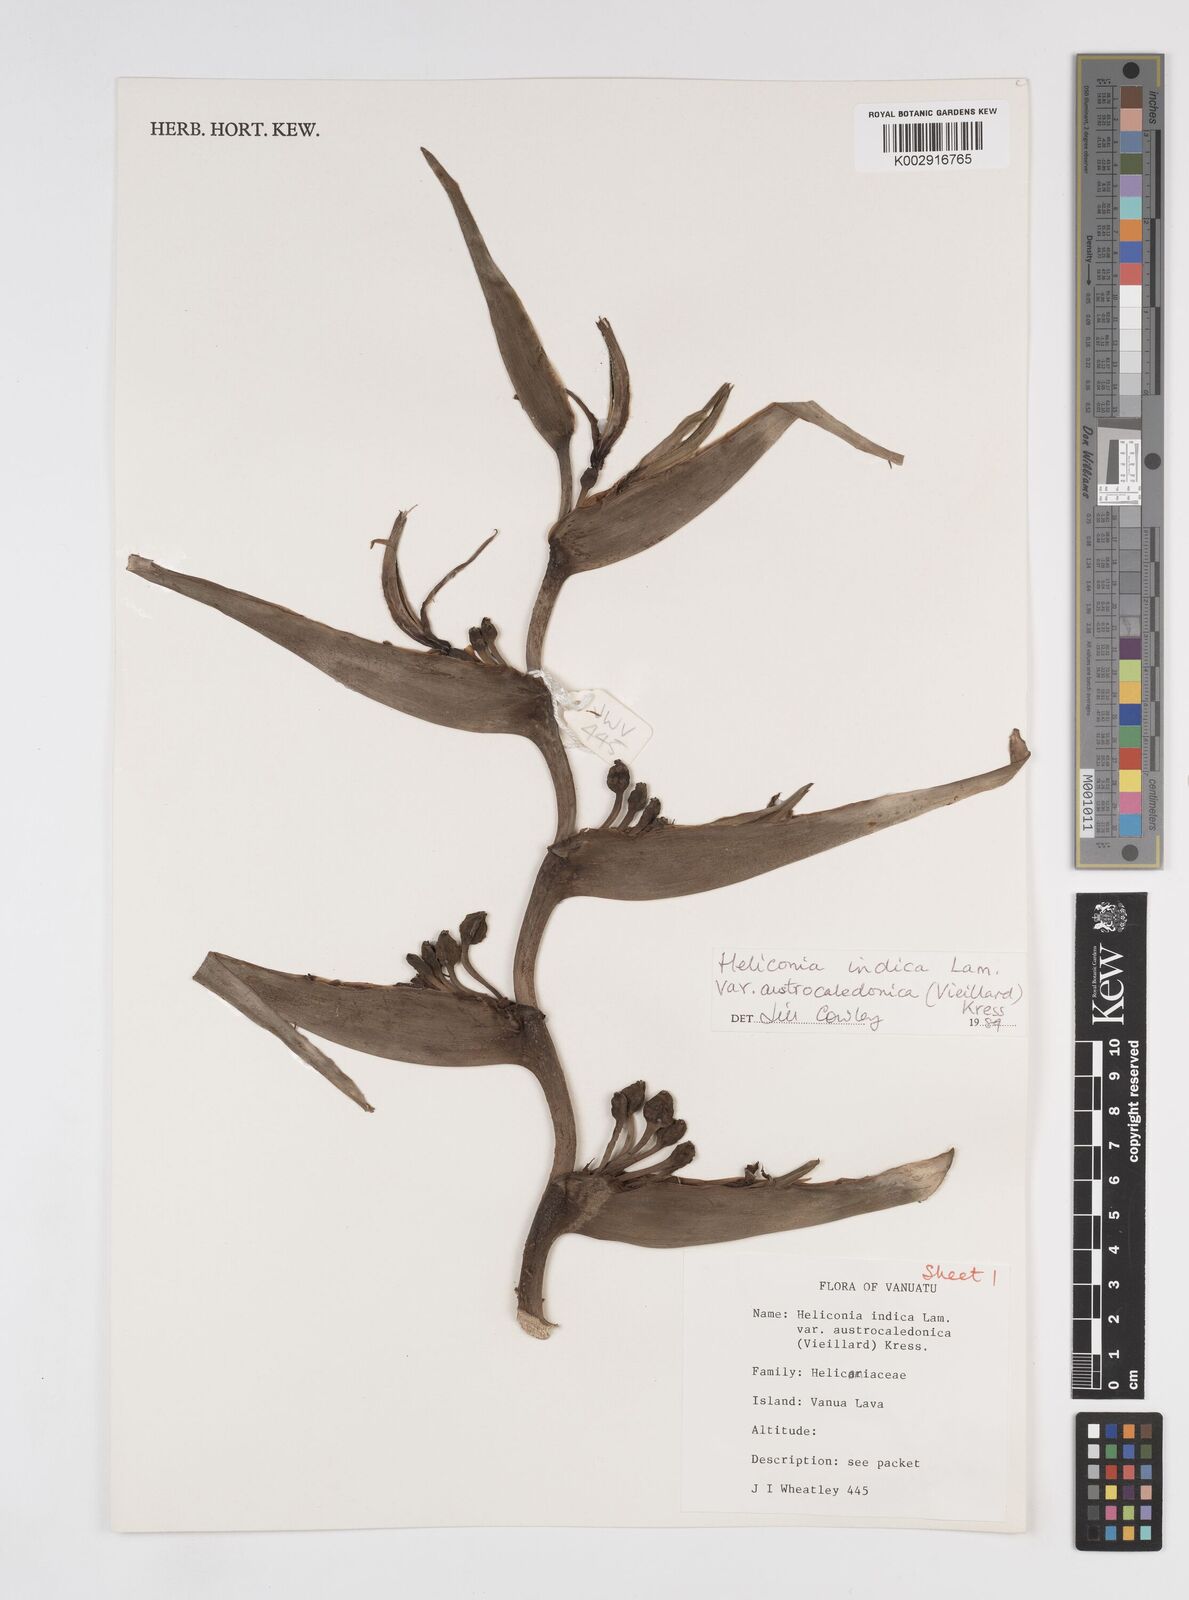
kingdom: Plantae
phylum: Tracheophyta
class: Liliopsida
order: Zingiberales
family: Heliconiaceae
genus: Heliconia
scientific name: Heliconia indica
